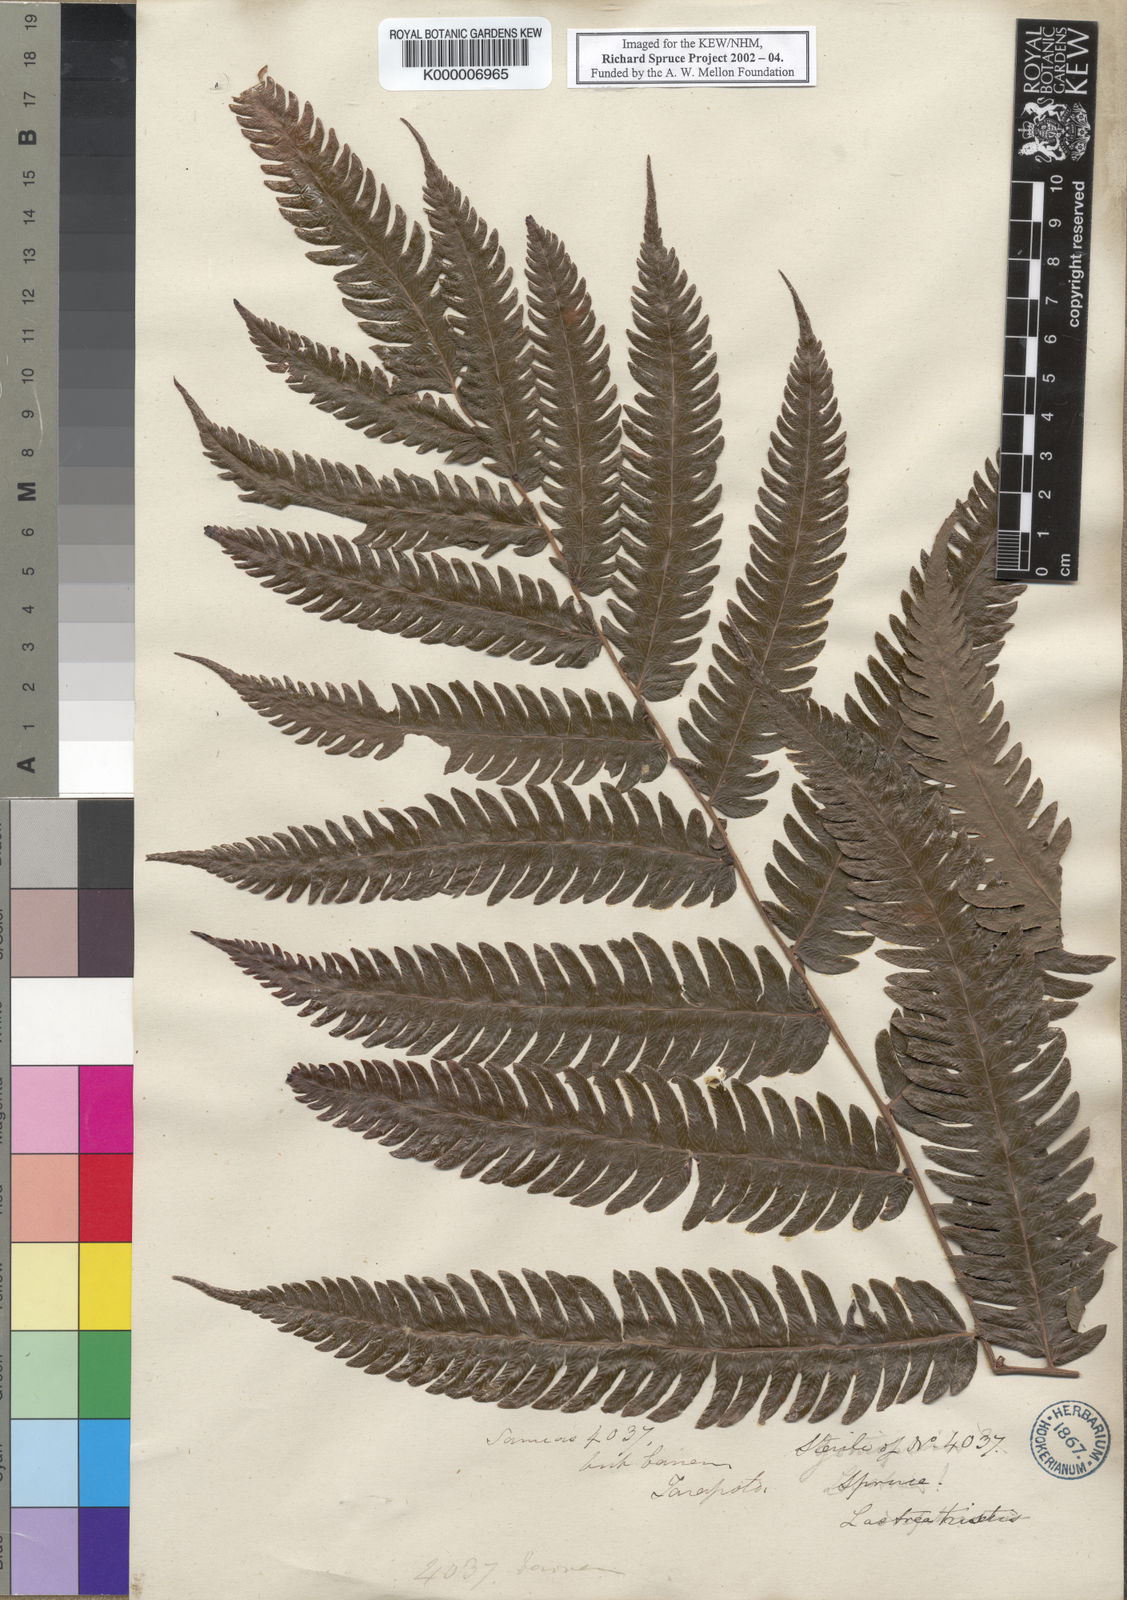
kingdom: Plantae
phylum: Tracheophyta
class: Polypodiopsida
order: Polypodiales
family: Thelypteridaceae
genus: Goniopteris
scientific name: Goniopteris tristis
